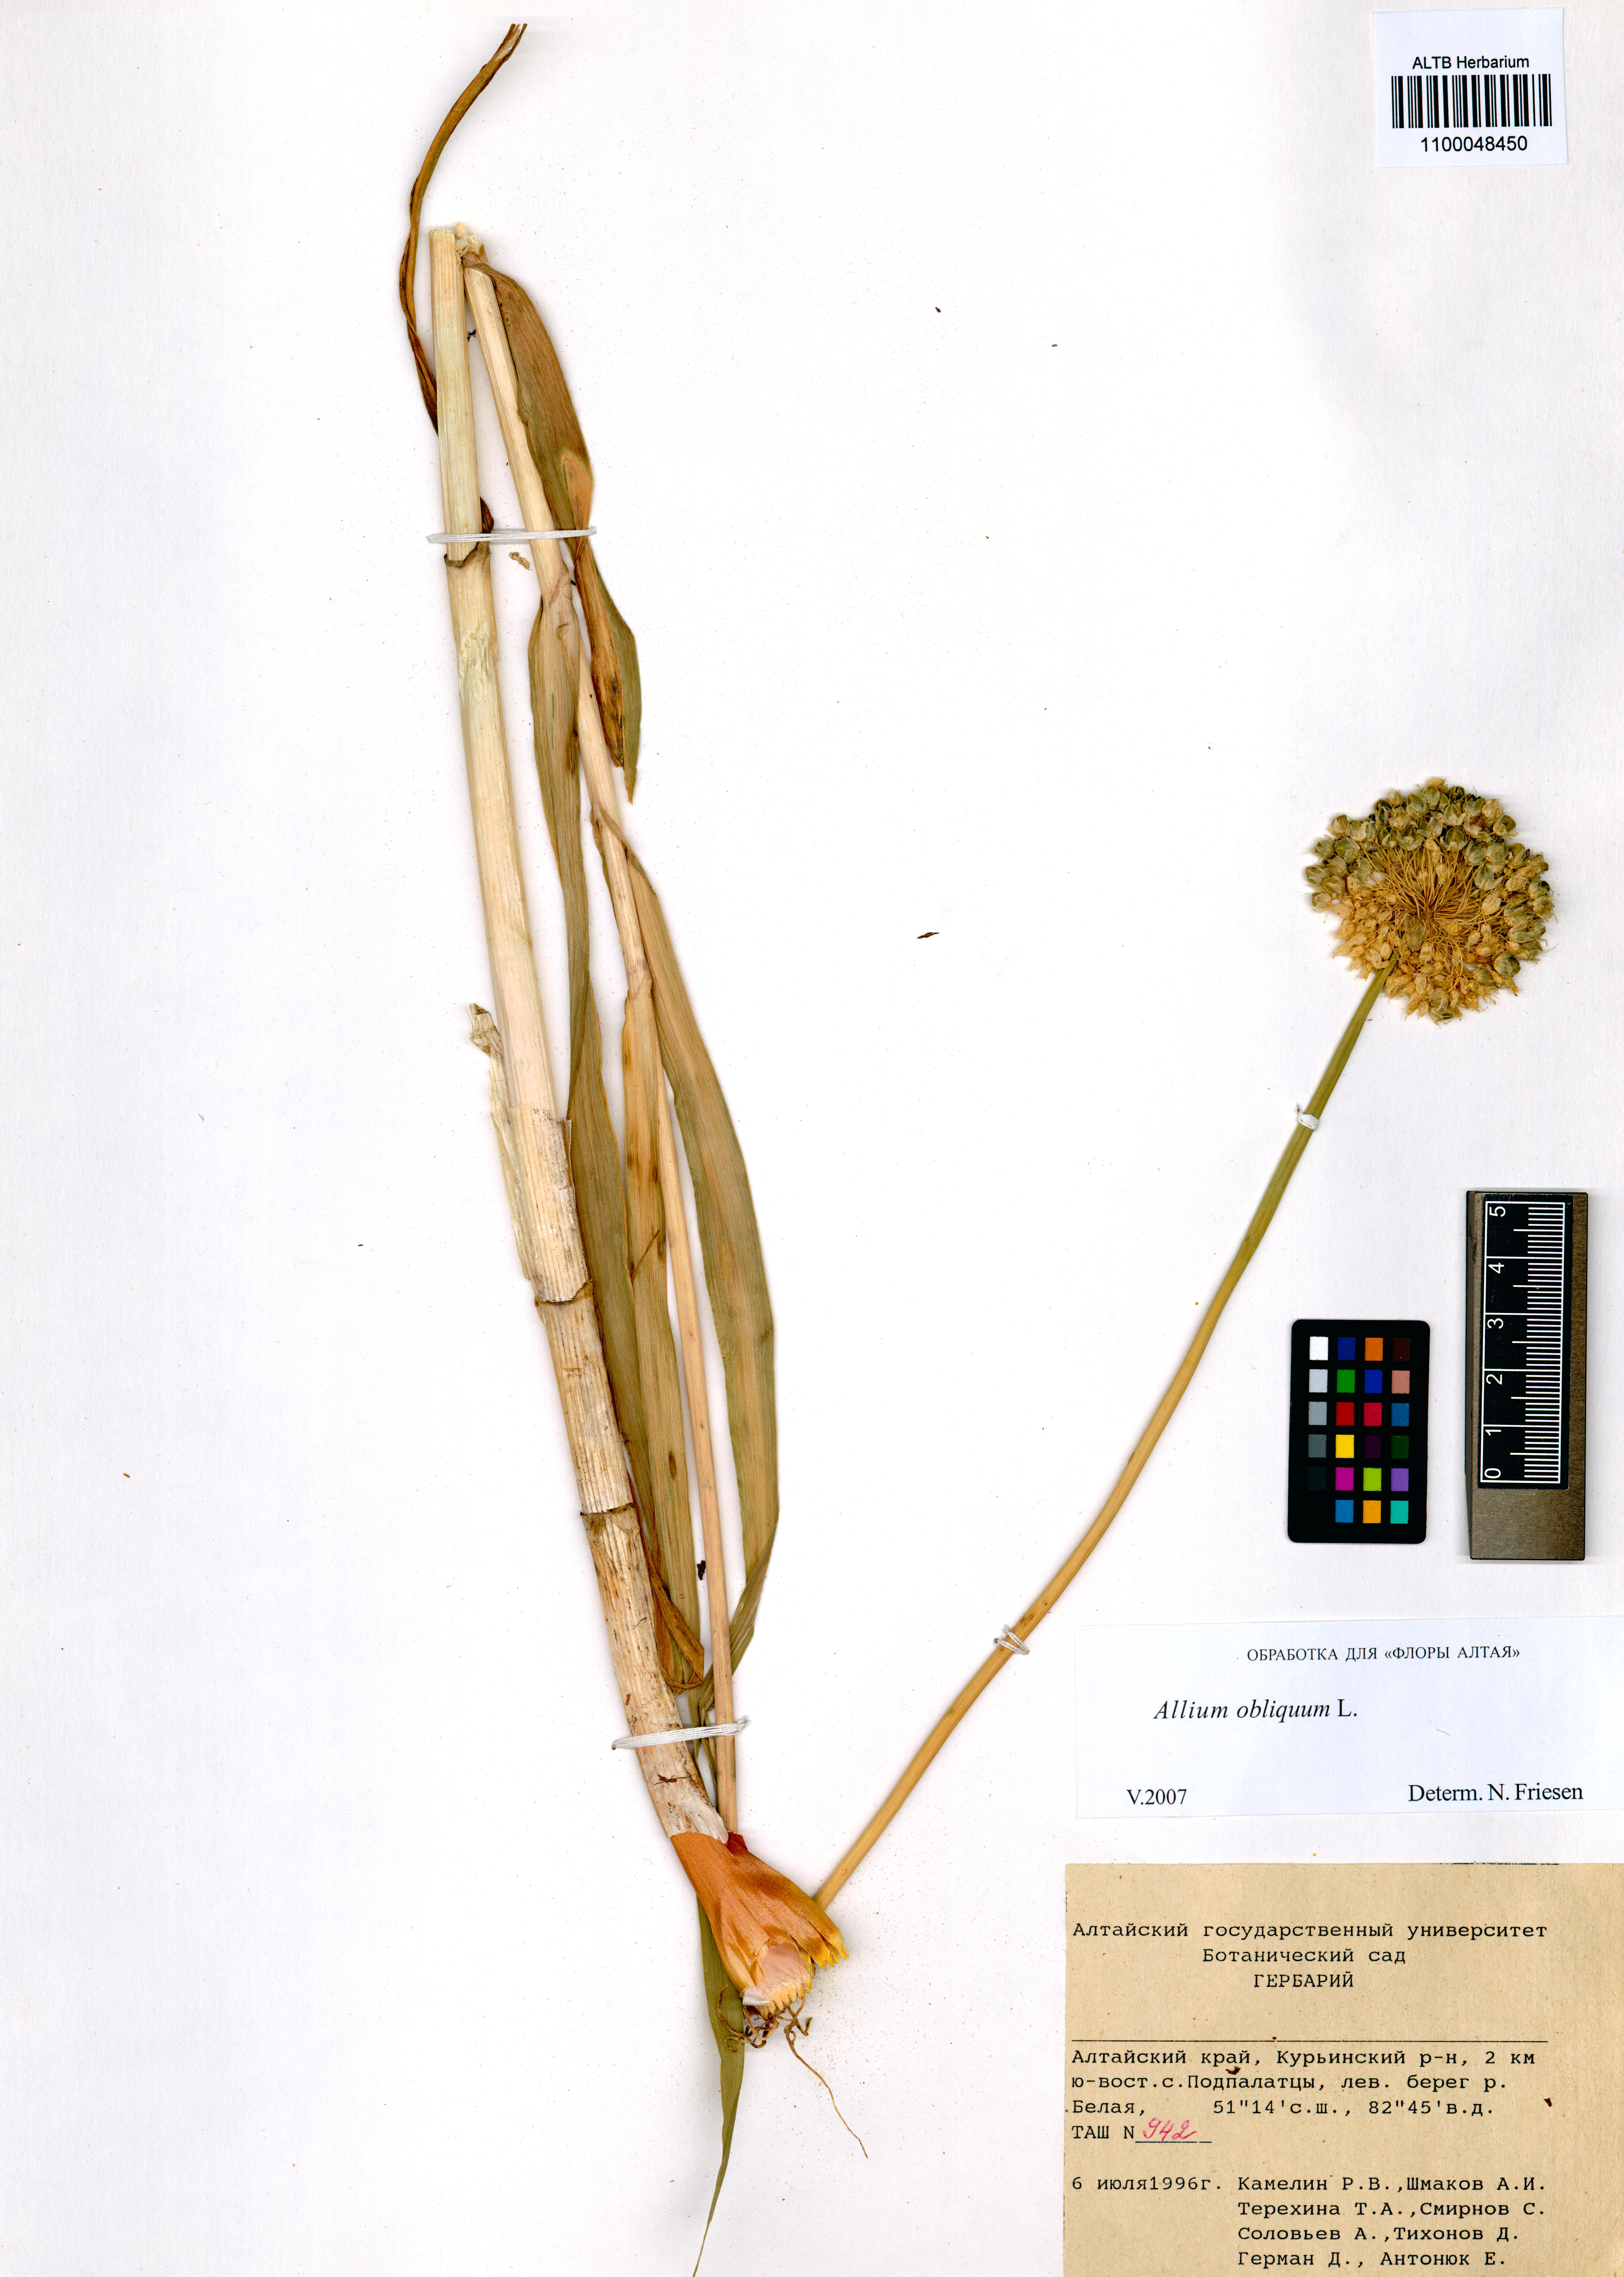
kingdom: Plantae
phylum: Tracheophyta
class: Liliopsida
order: Asparagales
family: Amaryllidaceae
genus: Allium
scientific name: Allium obliquum
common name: Oblique onion
